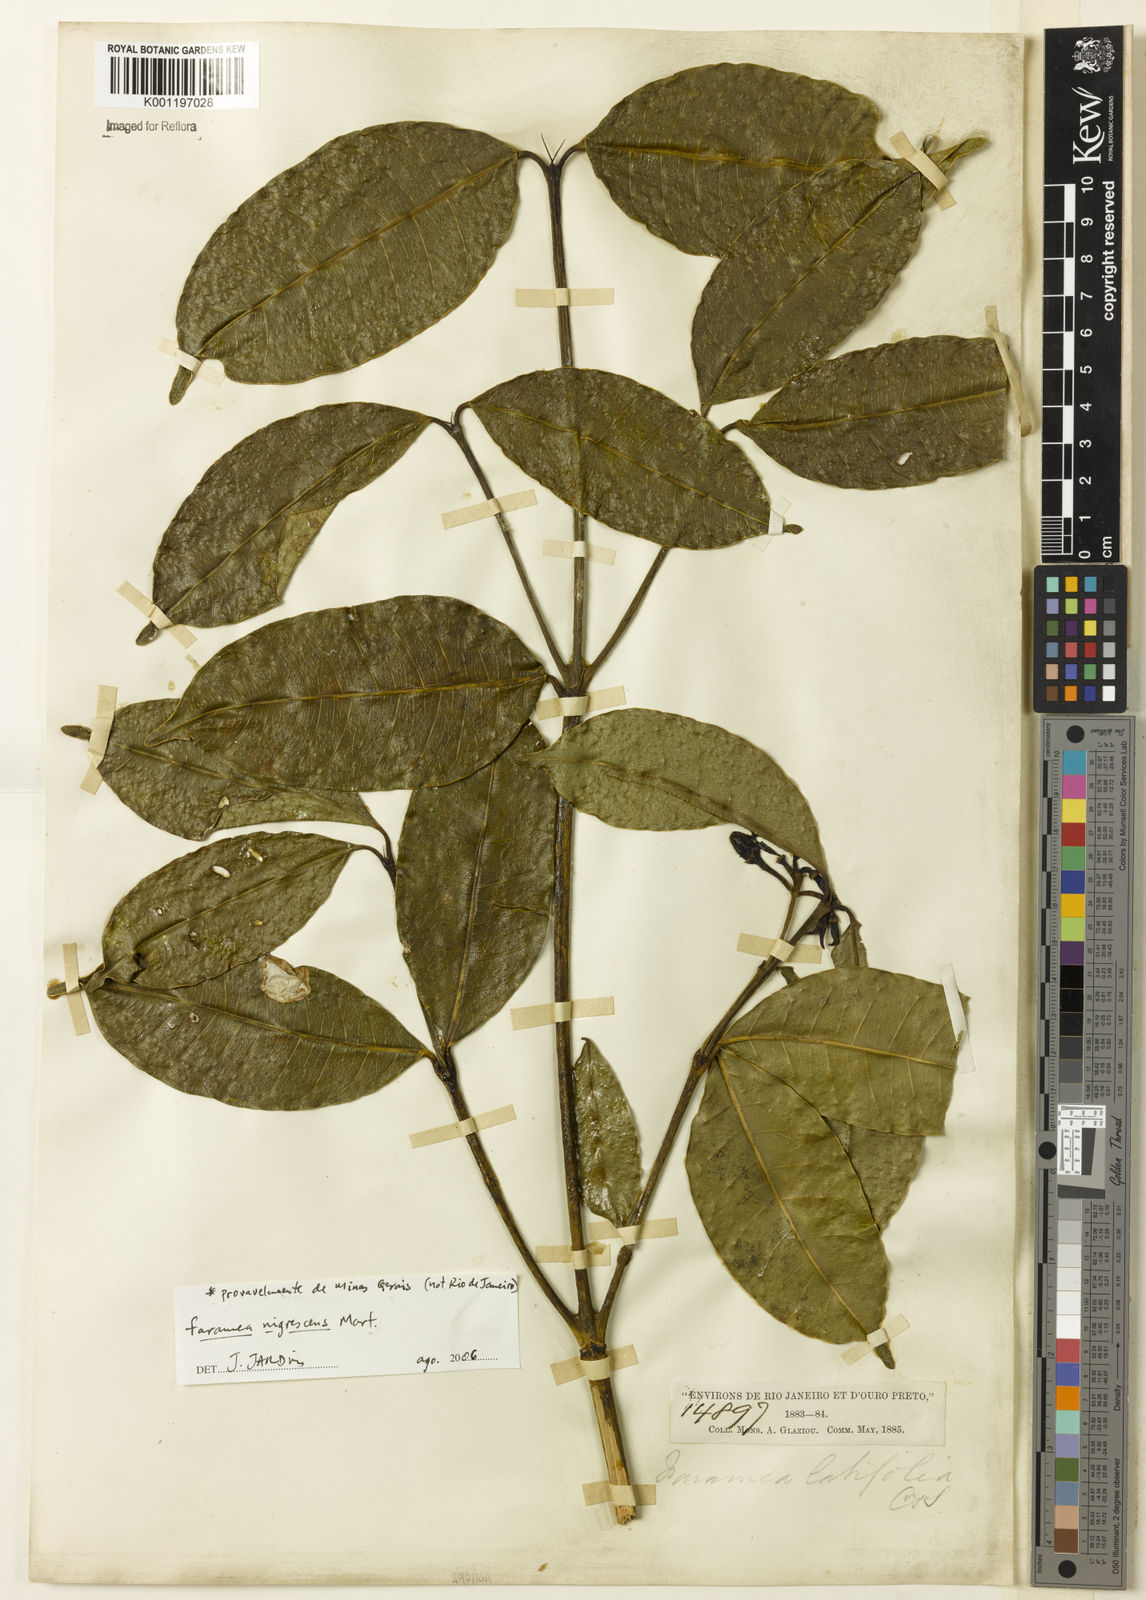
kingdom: Plantae
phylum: Tracheophyta
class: Magnoliopsida
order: Gentianales
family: Rubiaceae
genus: Faramea
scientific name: Faramea nigrescens
